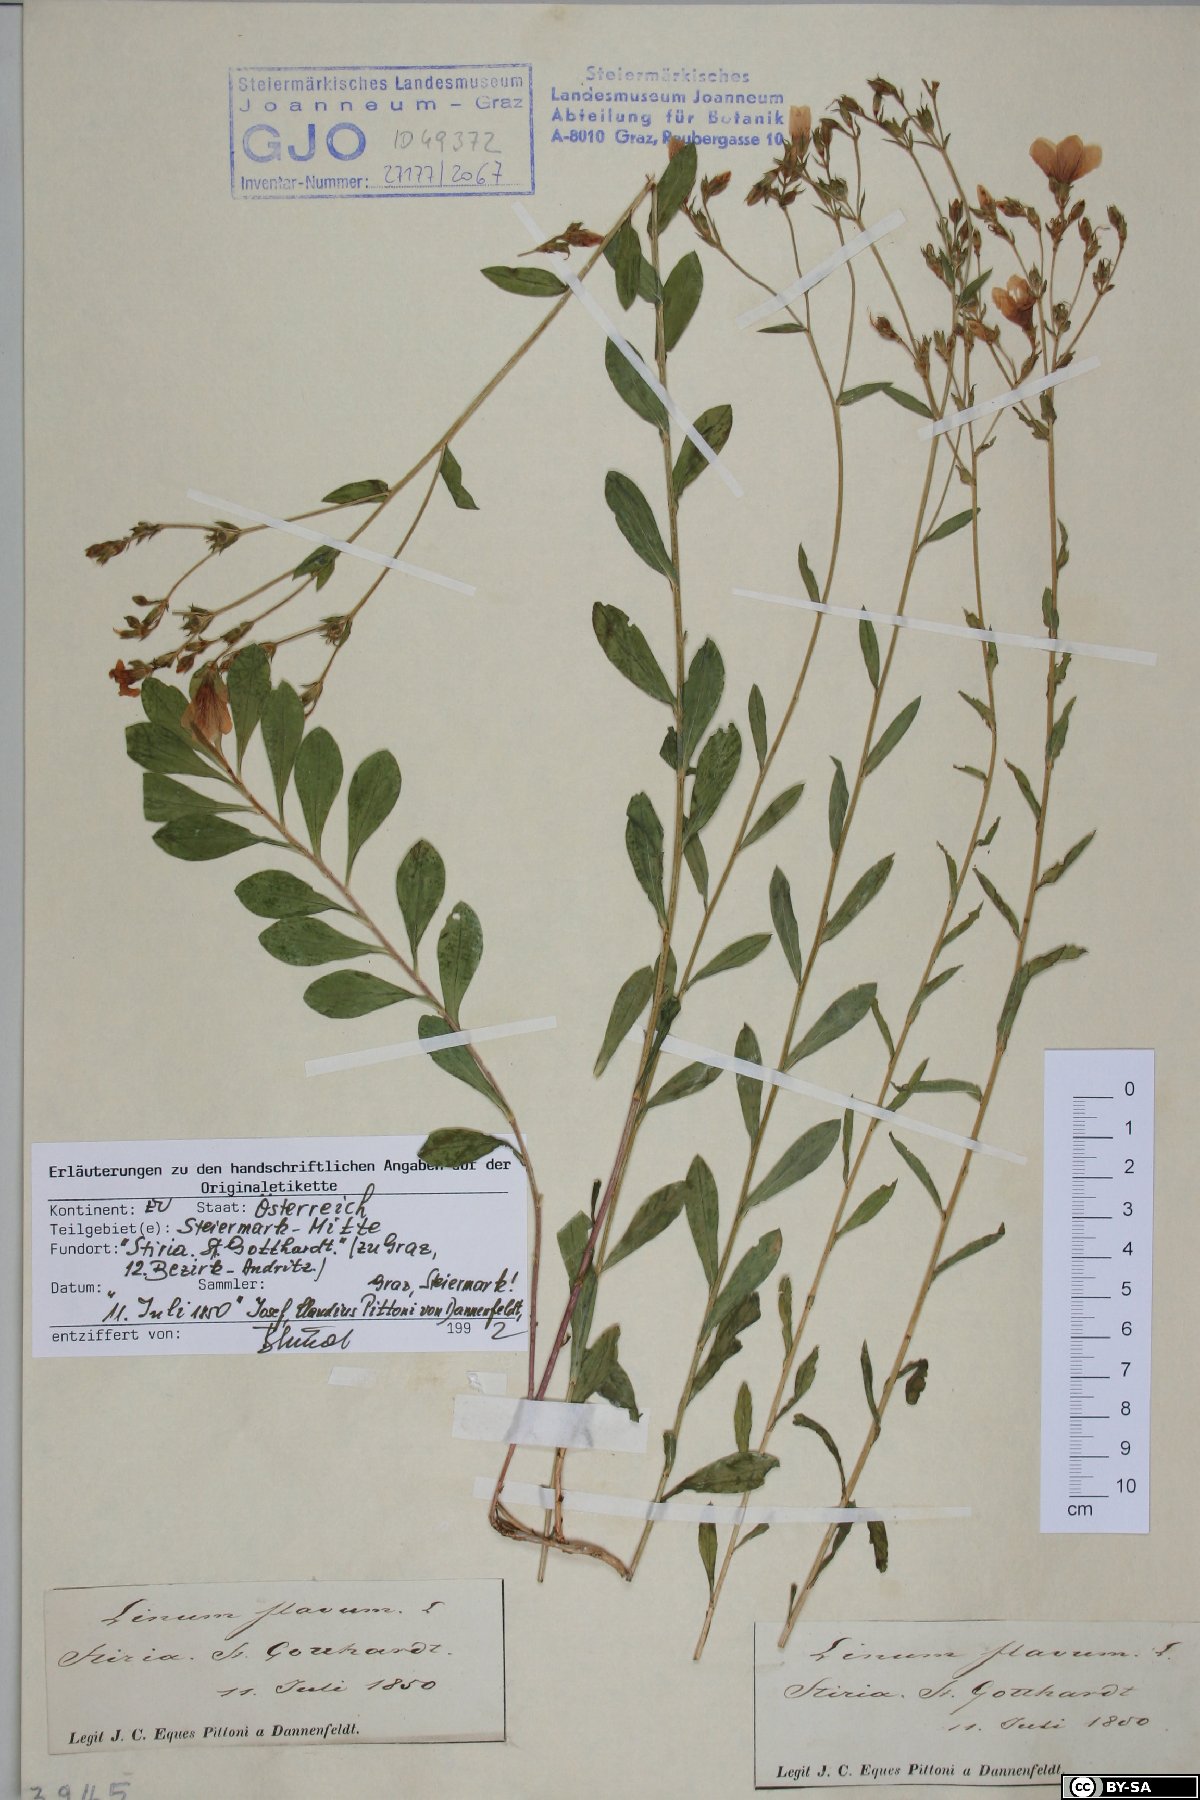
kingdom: Plantae
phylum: Tracheophyta
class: Magnoliopsida
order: Malpighiales
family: Linaceae
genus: Linum
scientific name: Linum flavum
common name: Yellow flax
